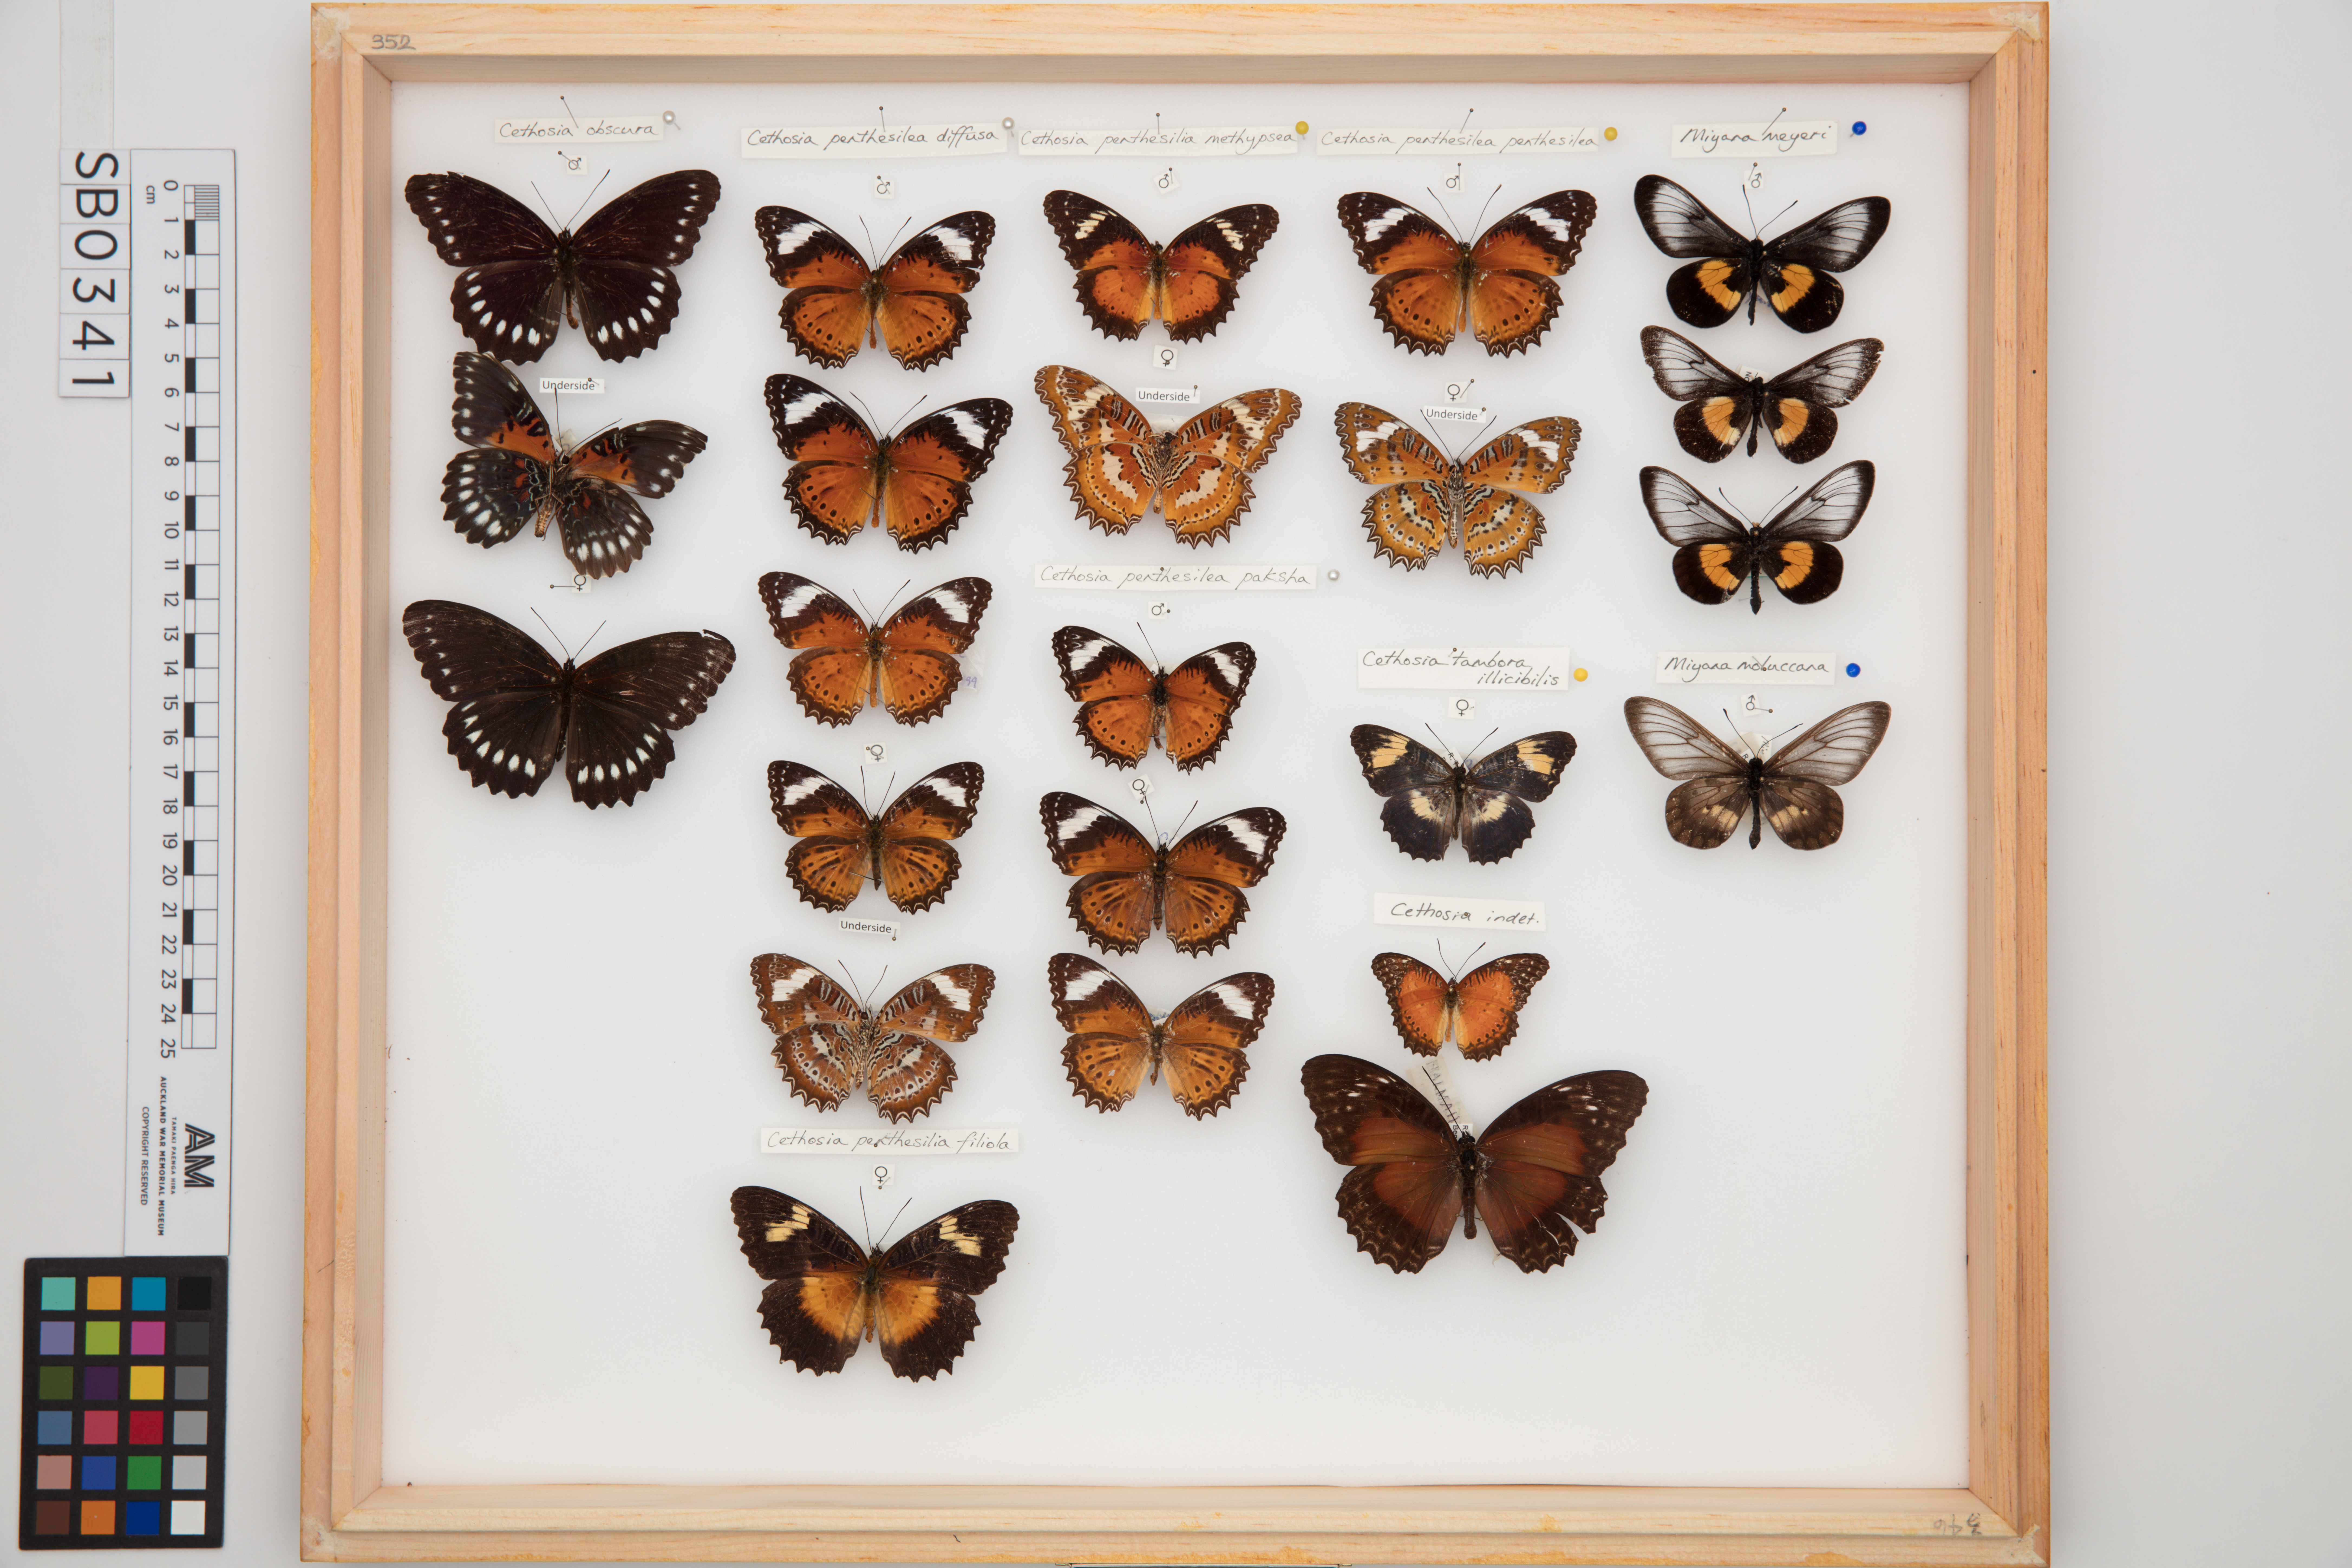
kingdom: Animalia
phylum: Arthropoda
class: Insecta
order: Lepidoptera
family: Nymphalidae
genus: Cethosia
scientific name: Cethosia penthesilea
